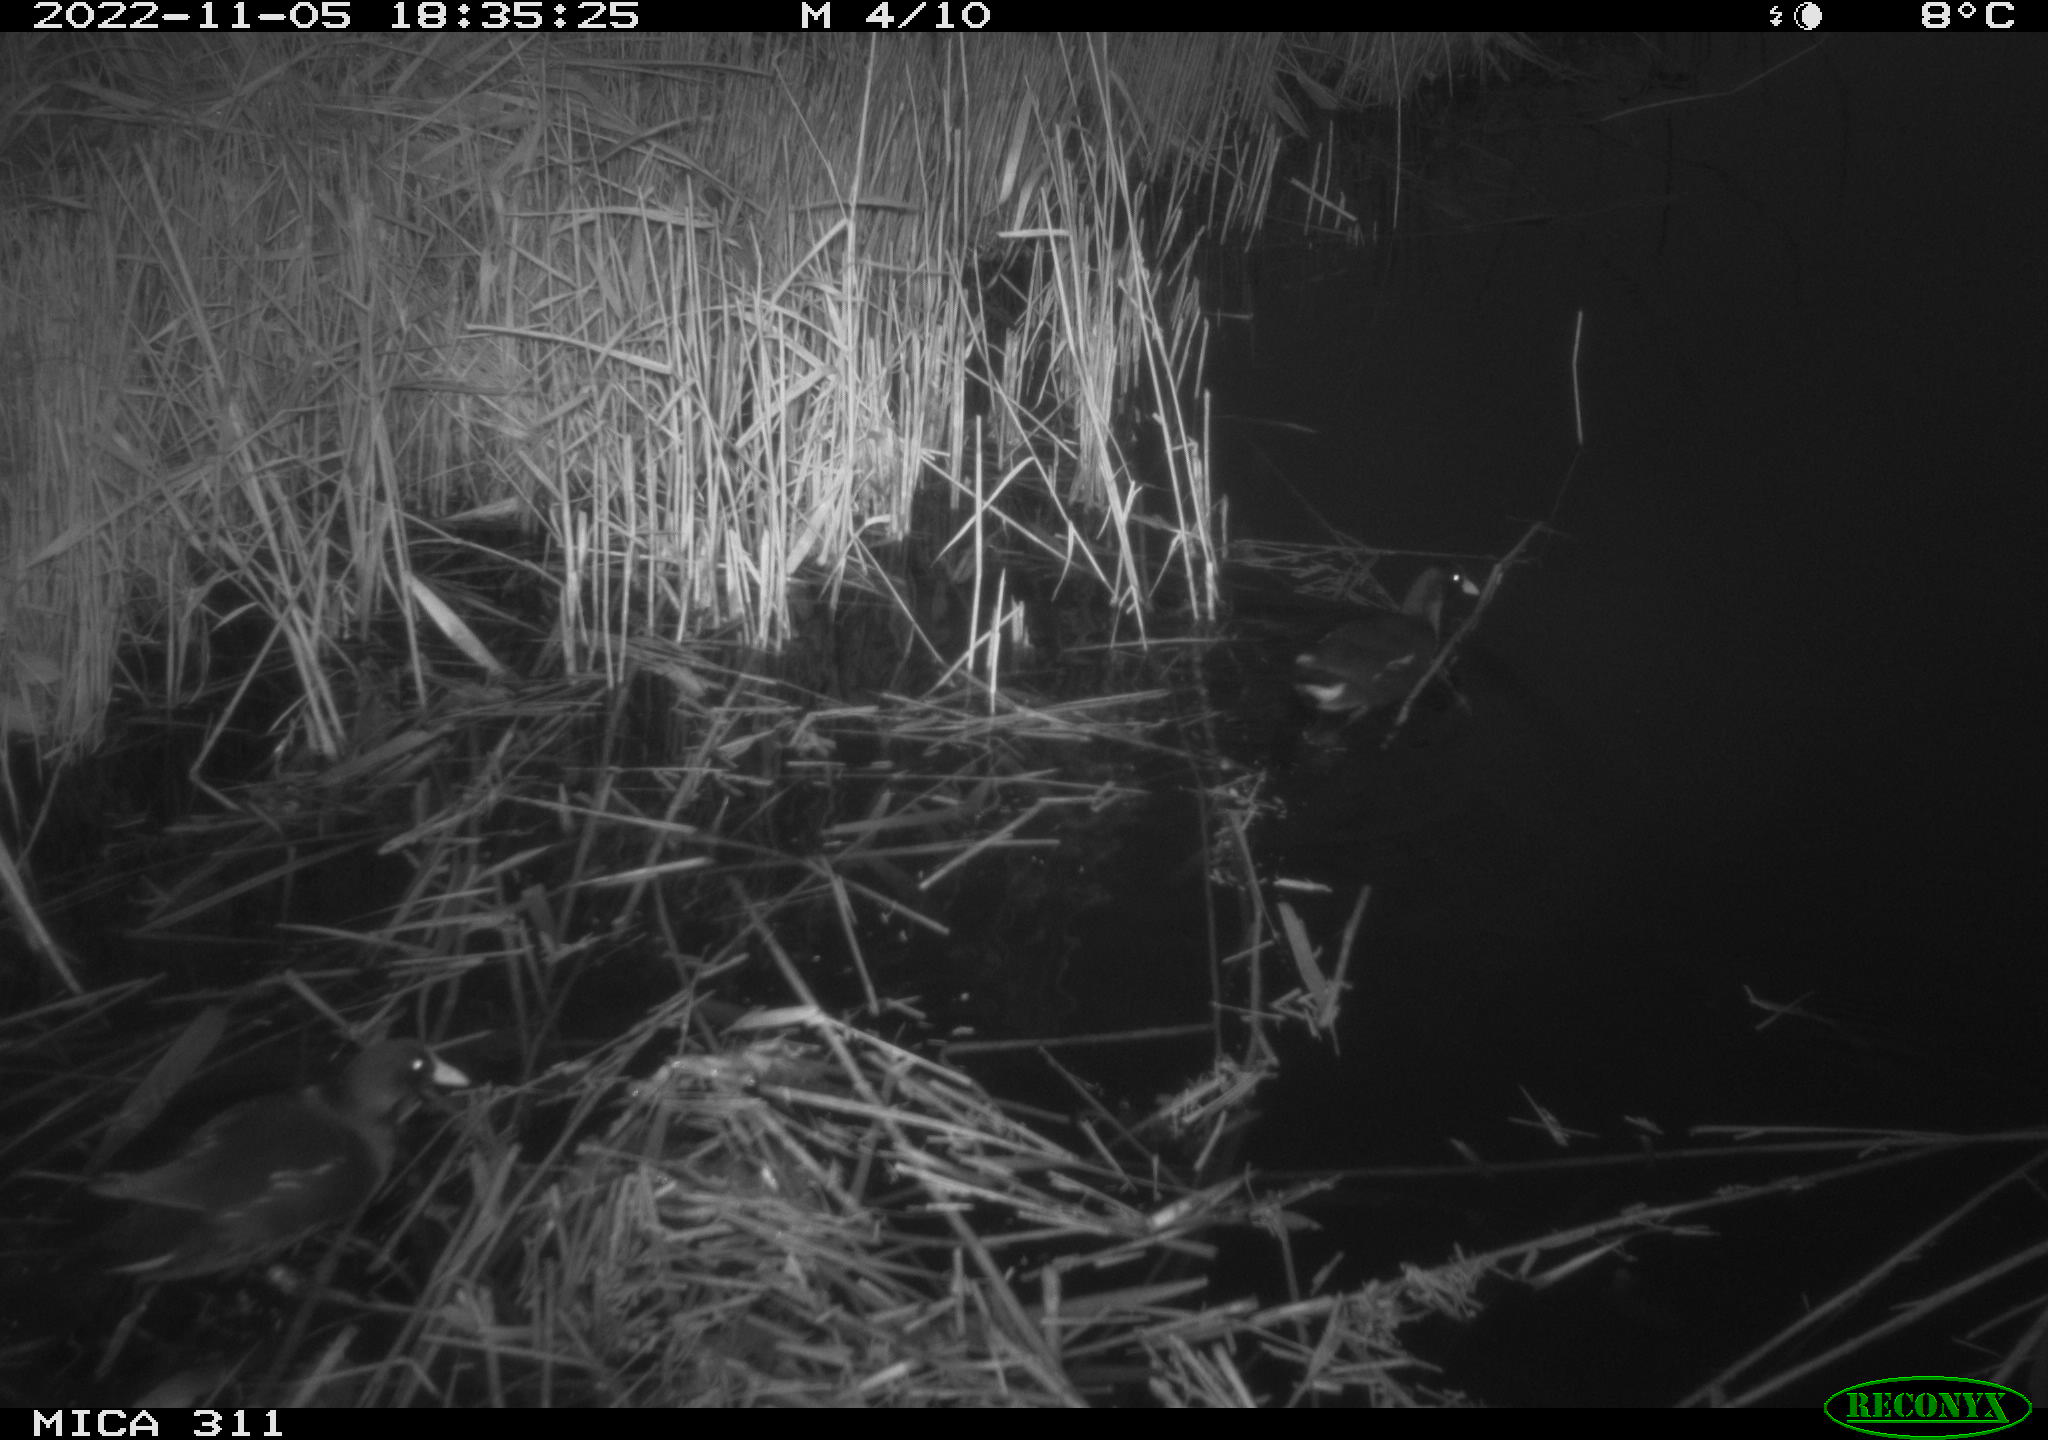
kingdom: Animalia
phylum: Chordata
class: Aves
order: Gruiformes
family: Rallidae
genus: Gallinula
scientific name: Gallinula chloropus
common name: Common moorhen
